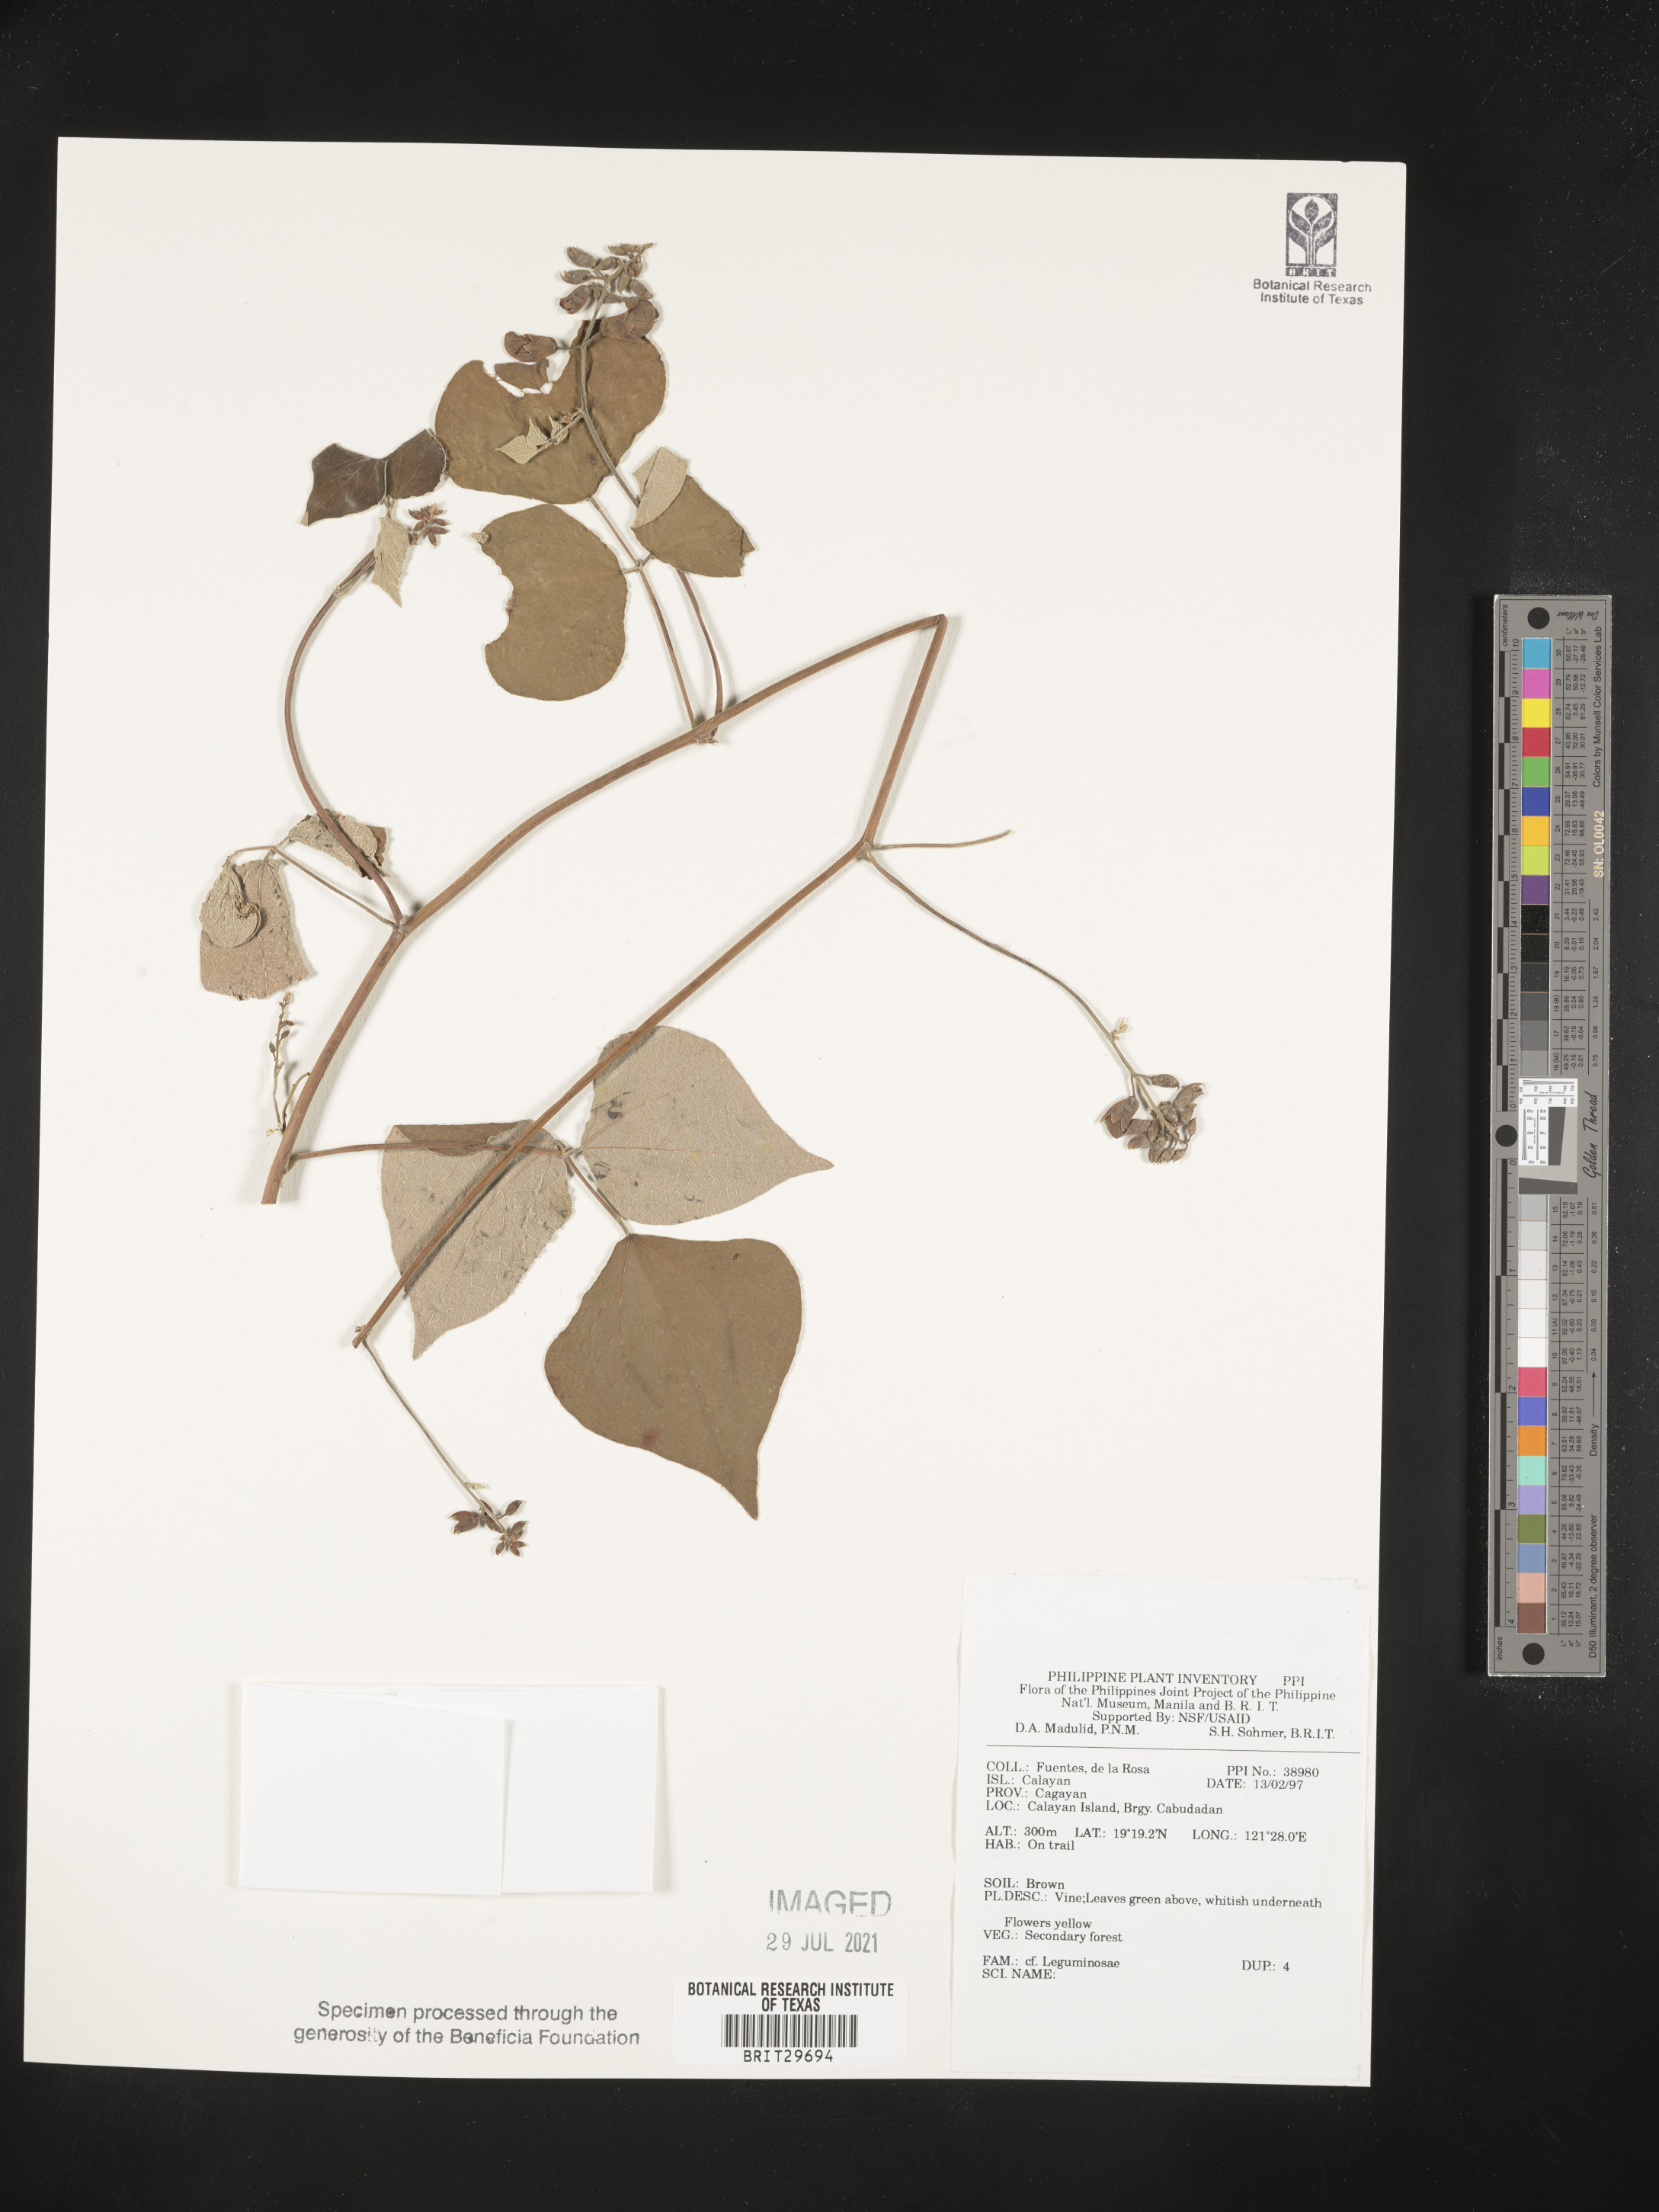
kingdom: Plantae
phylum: Tracheophyta
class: Magnoliopsida
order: Fabales
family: Fabaceae
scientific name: Fabaceae
